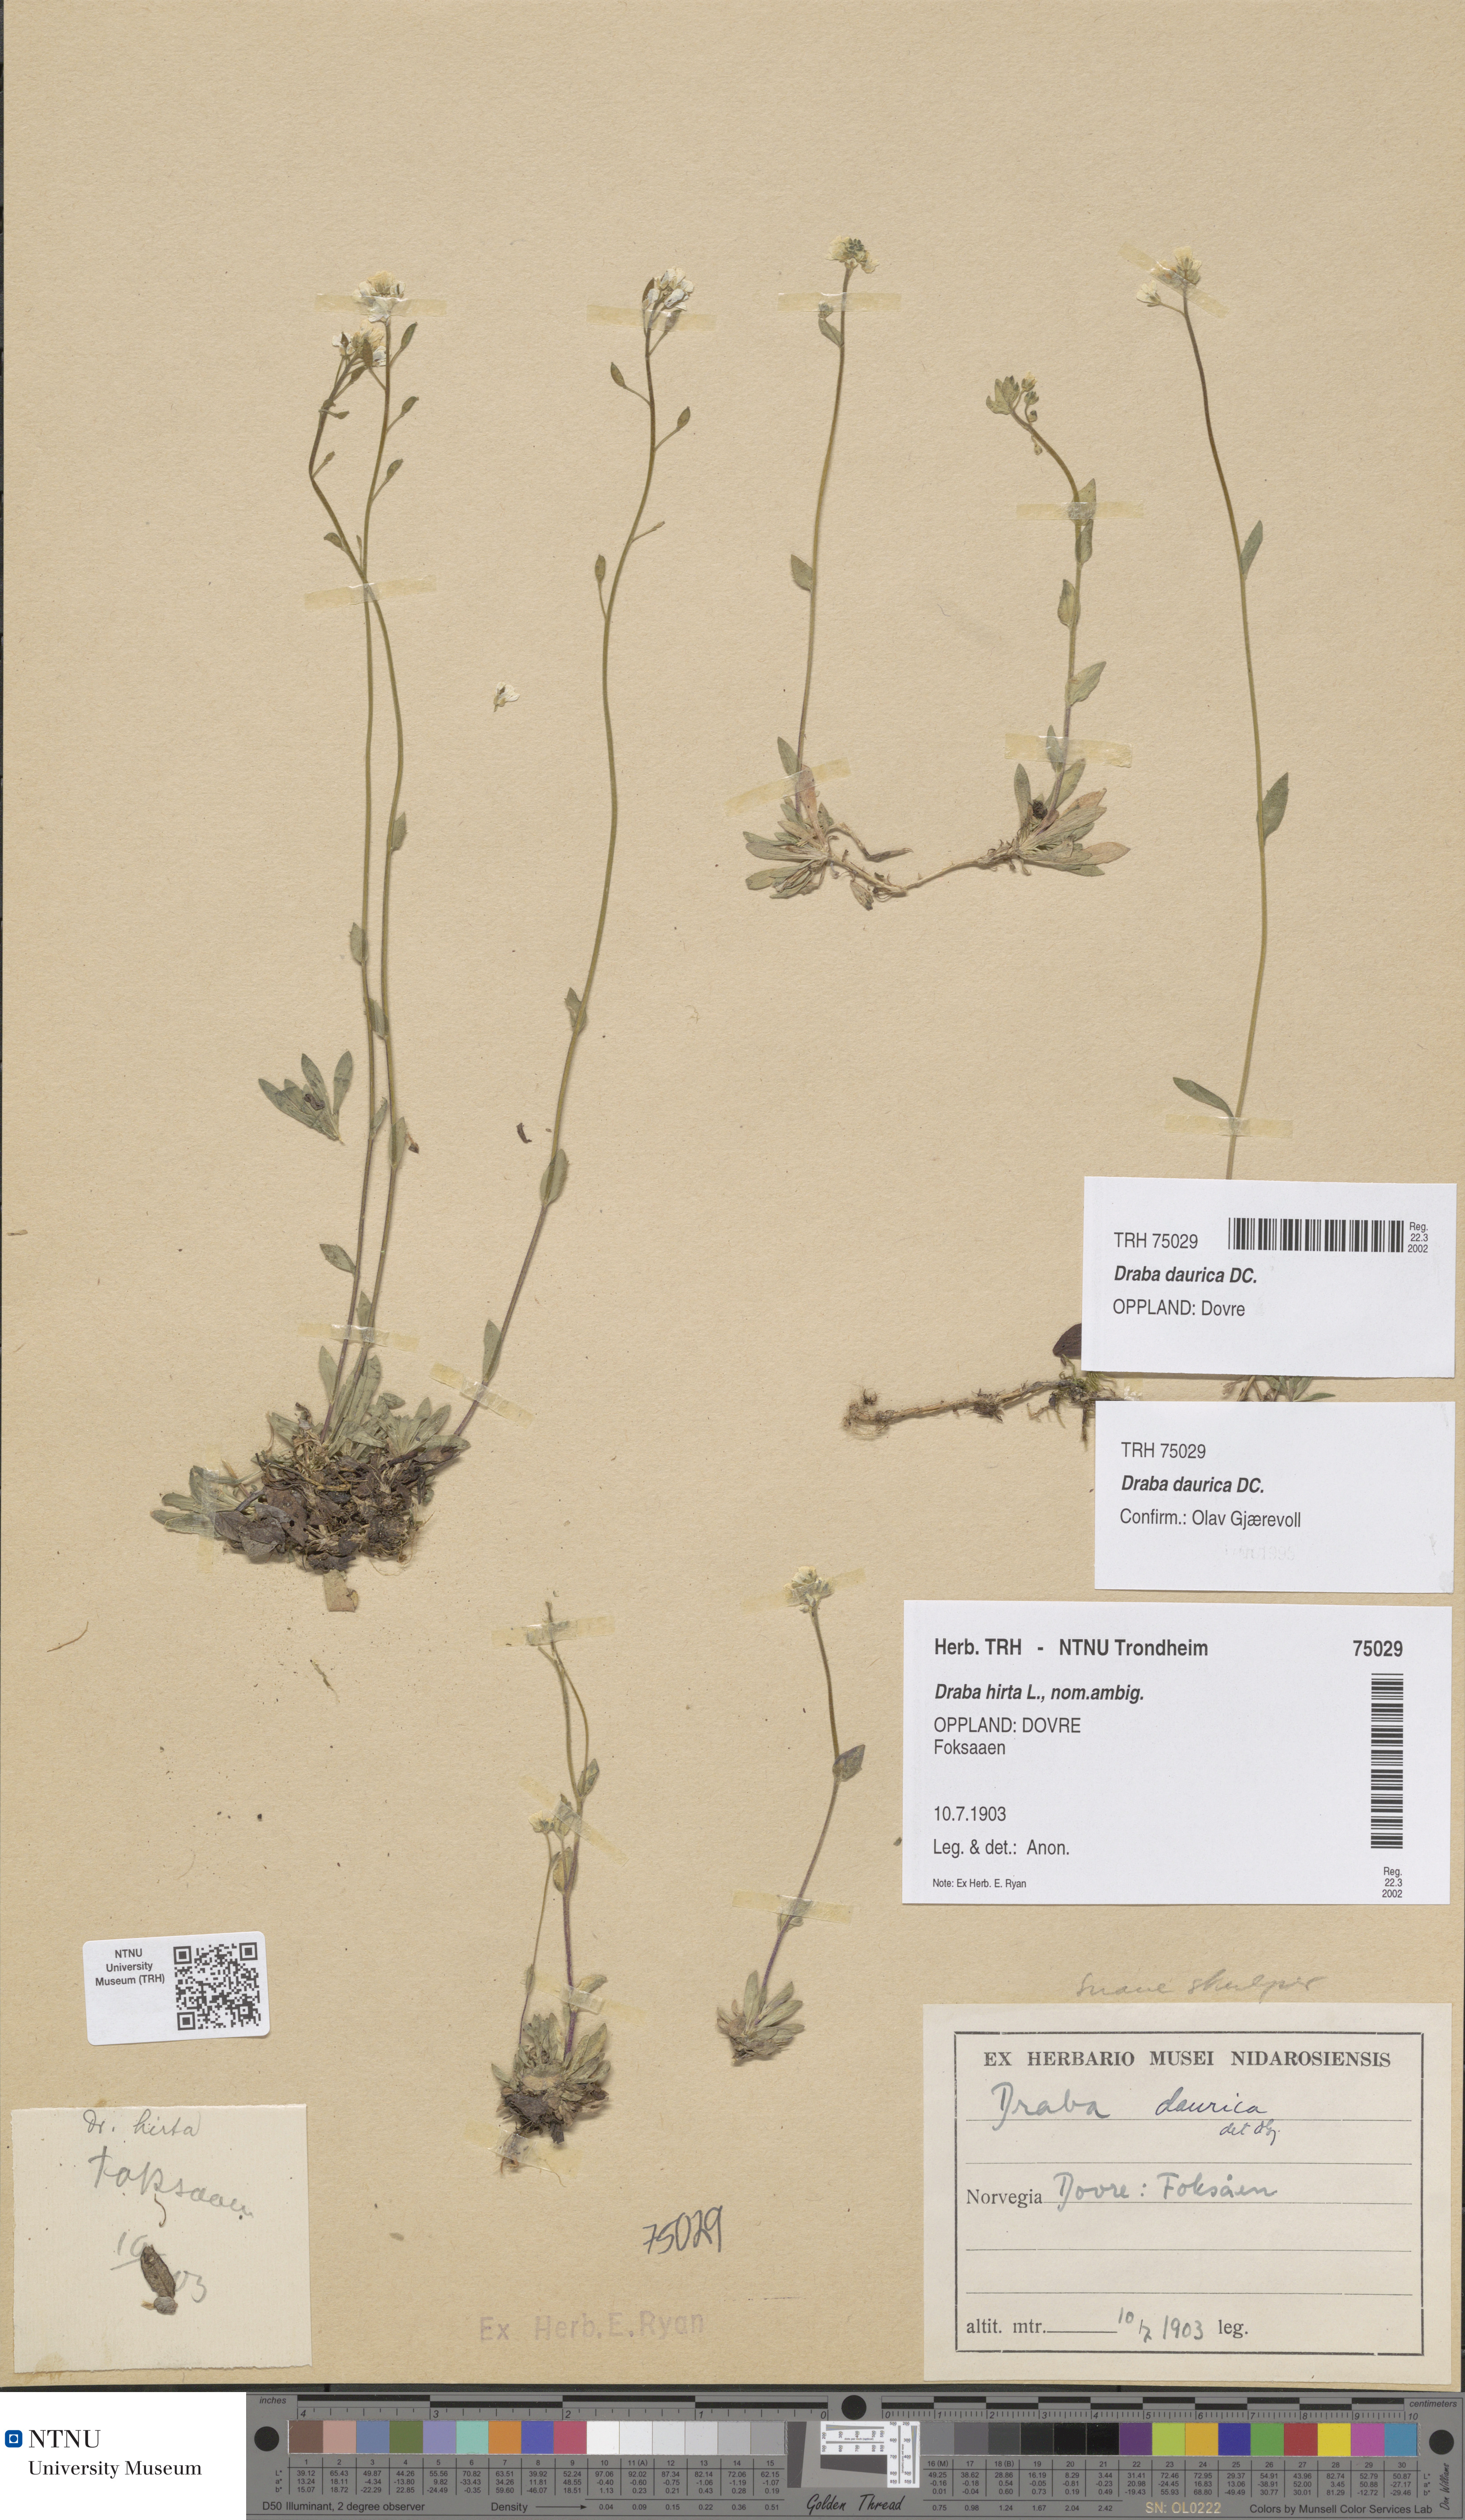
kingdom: Plantae
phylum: Tracheophyta
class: Magnoliopsida
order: Brassicales
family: Brassicaceae
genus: Draba
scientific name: Draba glabella
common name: Glaucous draba
